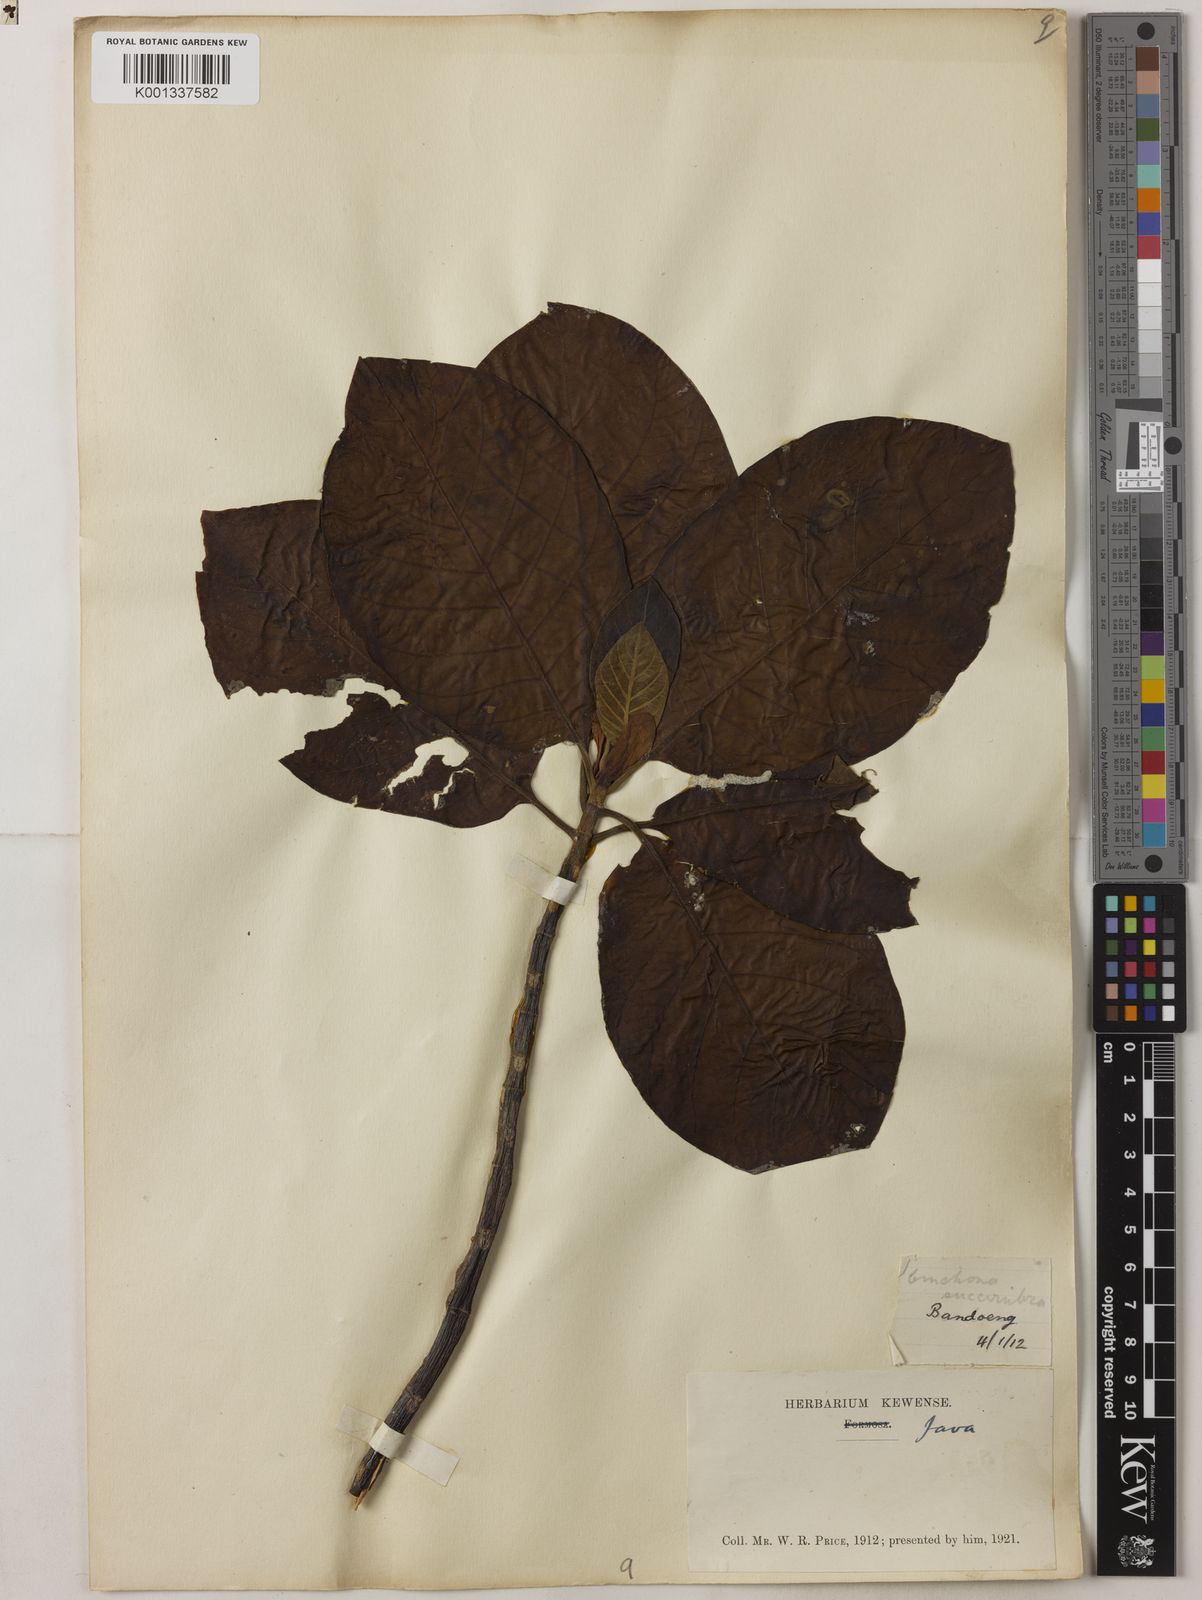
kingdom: Plantae
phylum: Tracheophyta
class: Magnoliopsida
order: Gentianales
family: Rubiaceae
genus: Cinchona
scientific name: Cinchona pubescens
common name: Quinine
